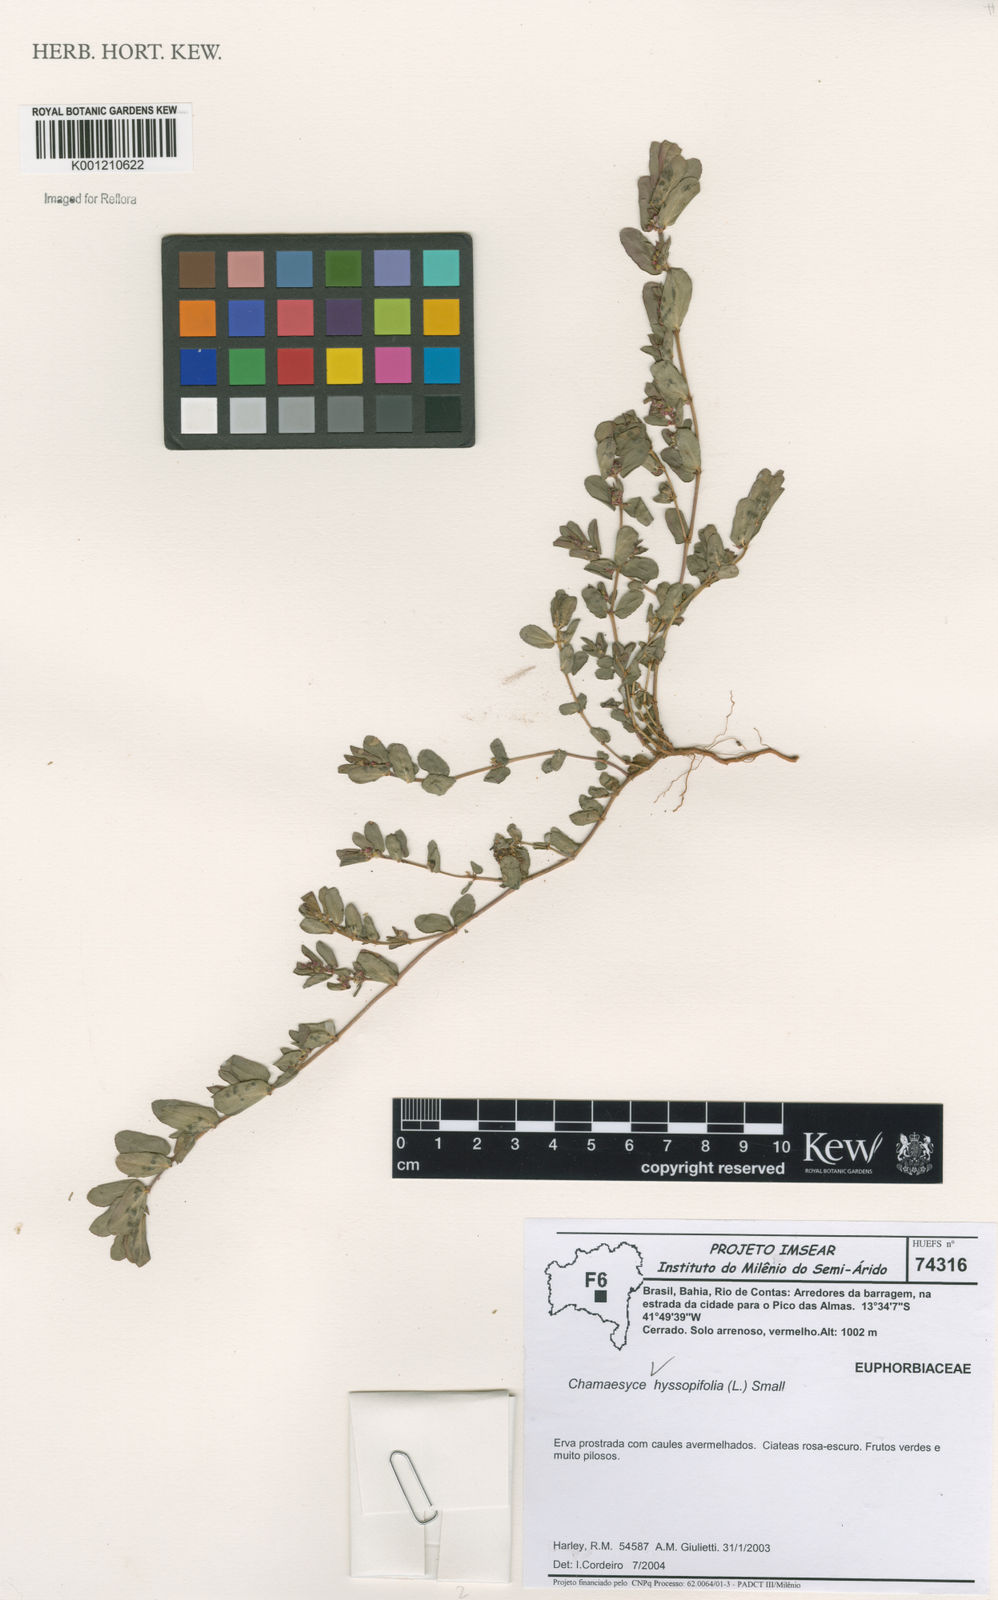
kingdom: Plantae
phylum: Tracheophyta
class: Magnoliopsida
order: Malpighiales
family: Euphorbiaceae
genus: Euphorbia
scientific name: Euphorbia hyssopifolia
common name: Hyssopleaf sandmat
